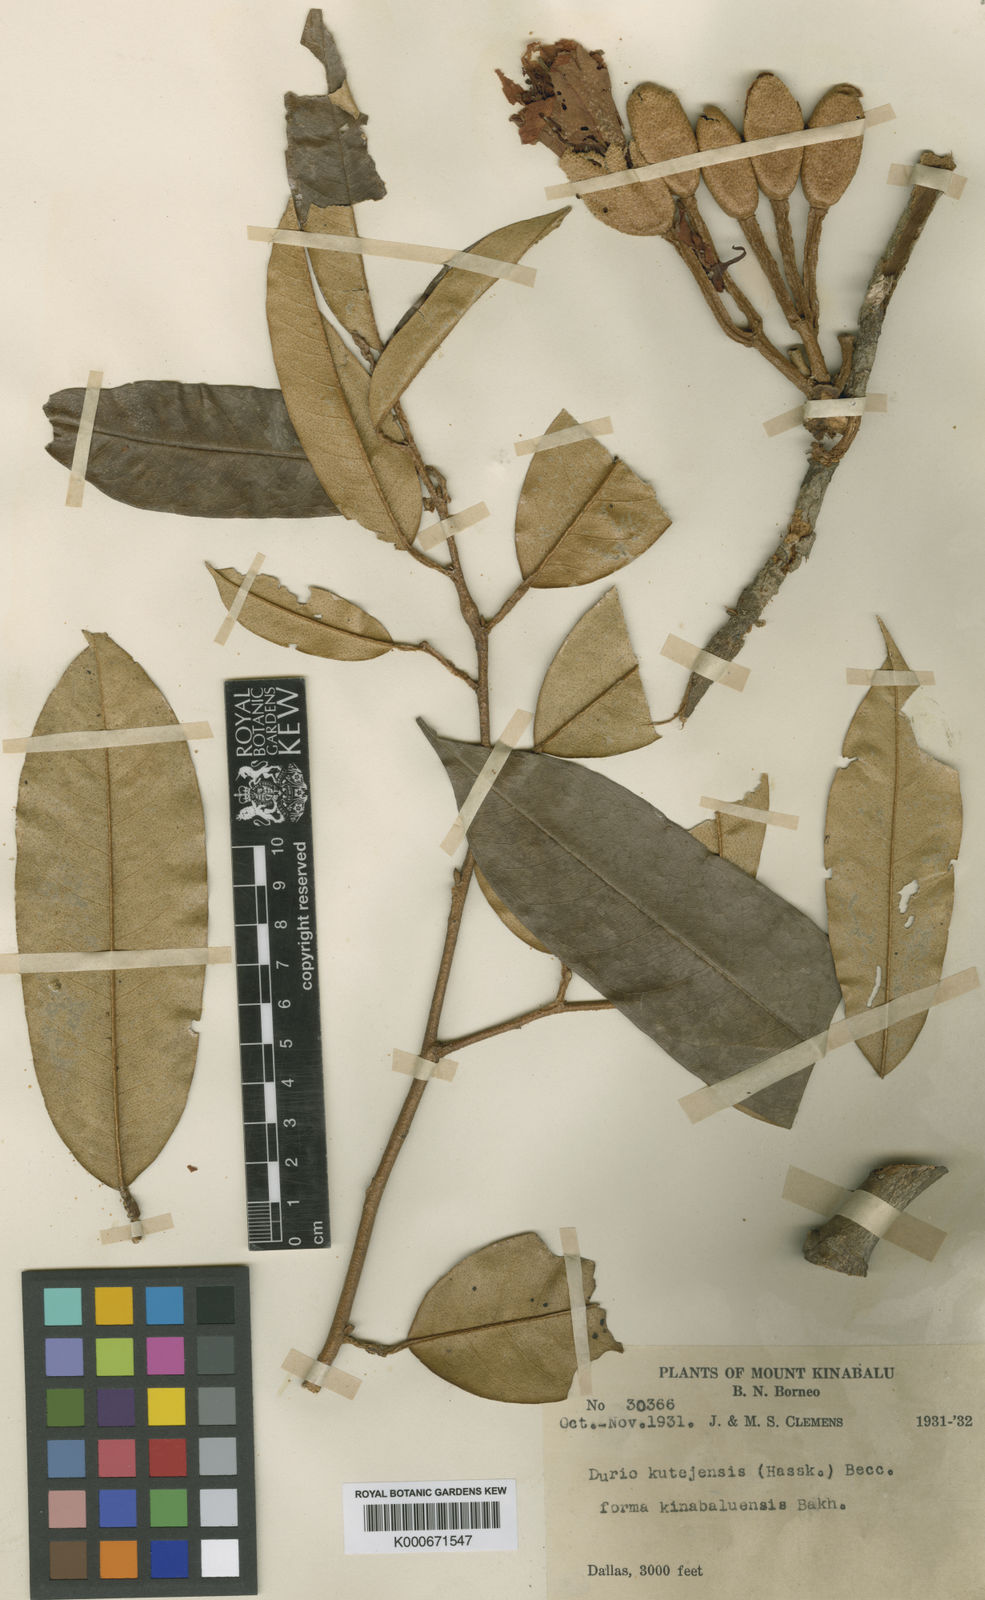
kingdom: Plantae
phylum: Tracheophyta
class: Magnoliopsida
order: Malvales
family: Malvaceae
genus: Durio
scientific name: Durio kinabaluensis
